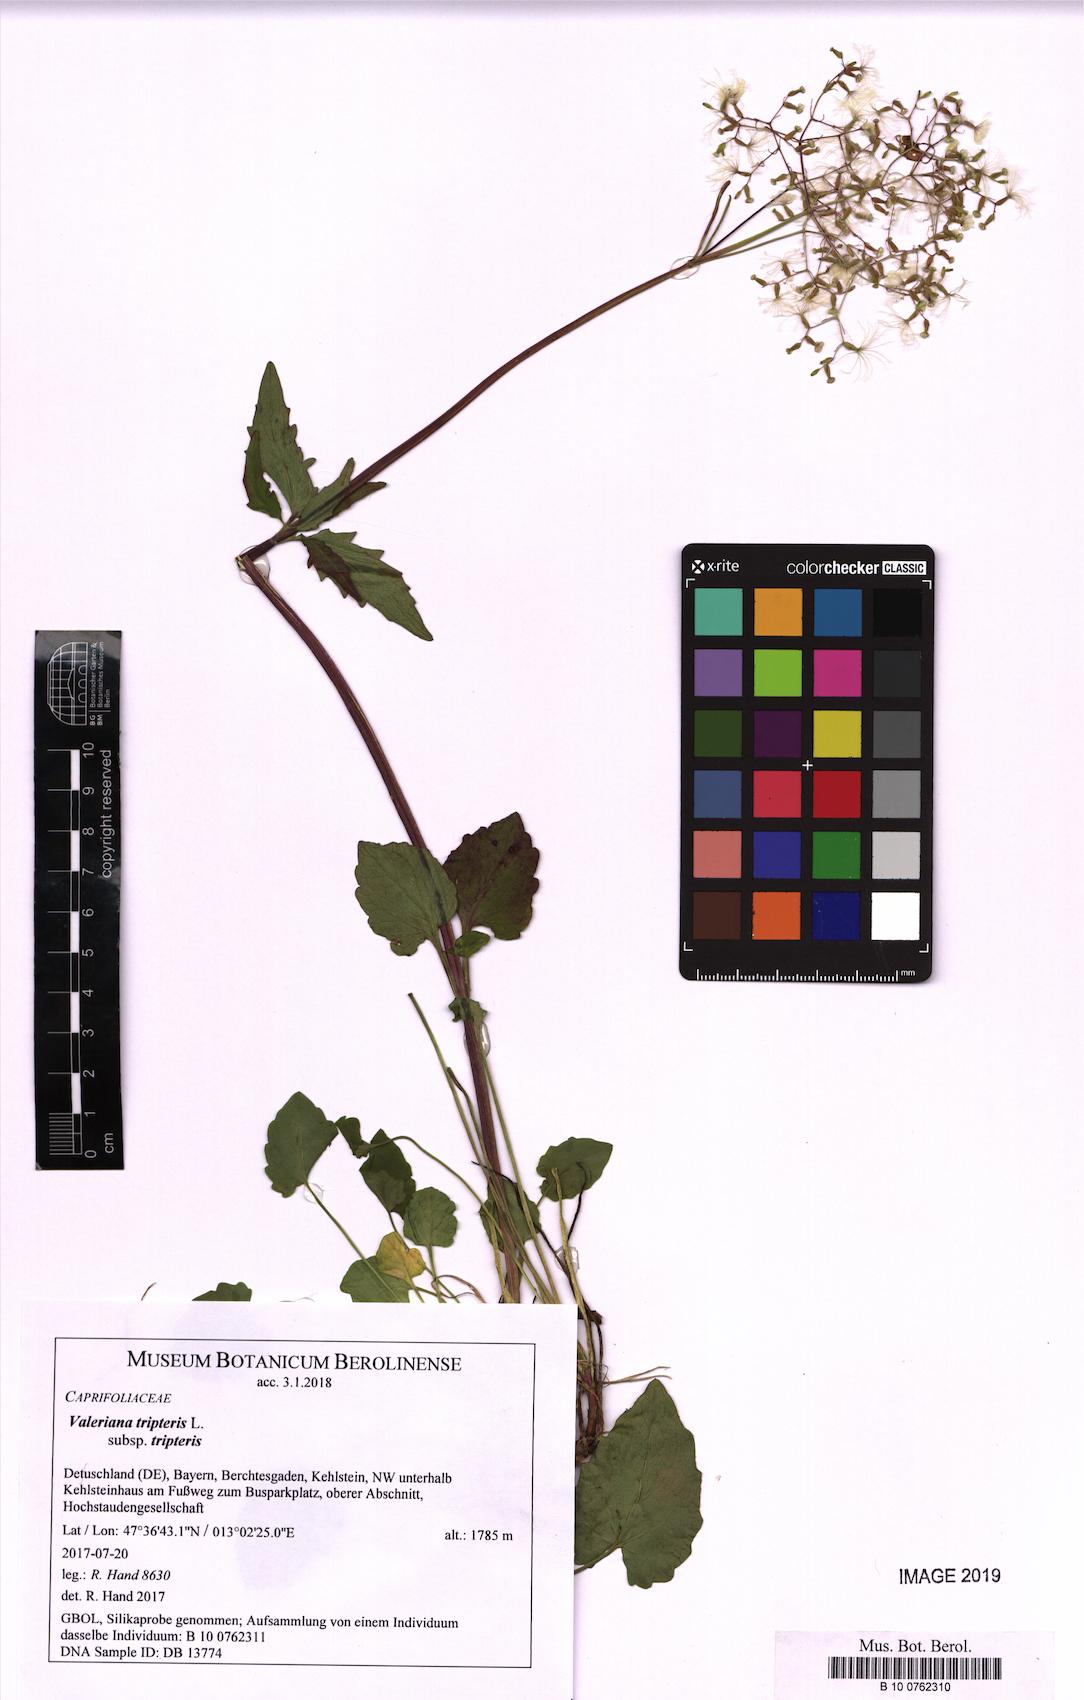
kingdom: Plantae
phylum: Tracheophyta
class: Magnoliopsida
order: Dipsacales
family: Caprifoliaceae
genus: Valeriana
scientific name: Valeriana tripteris
